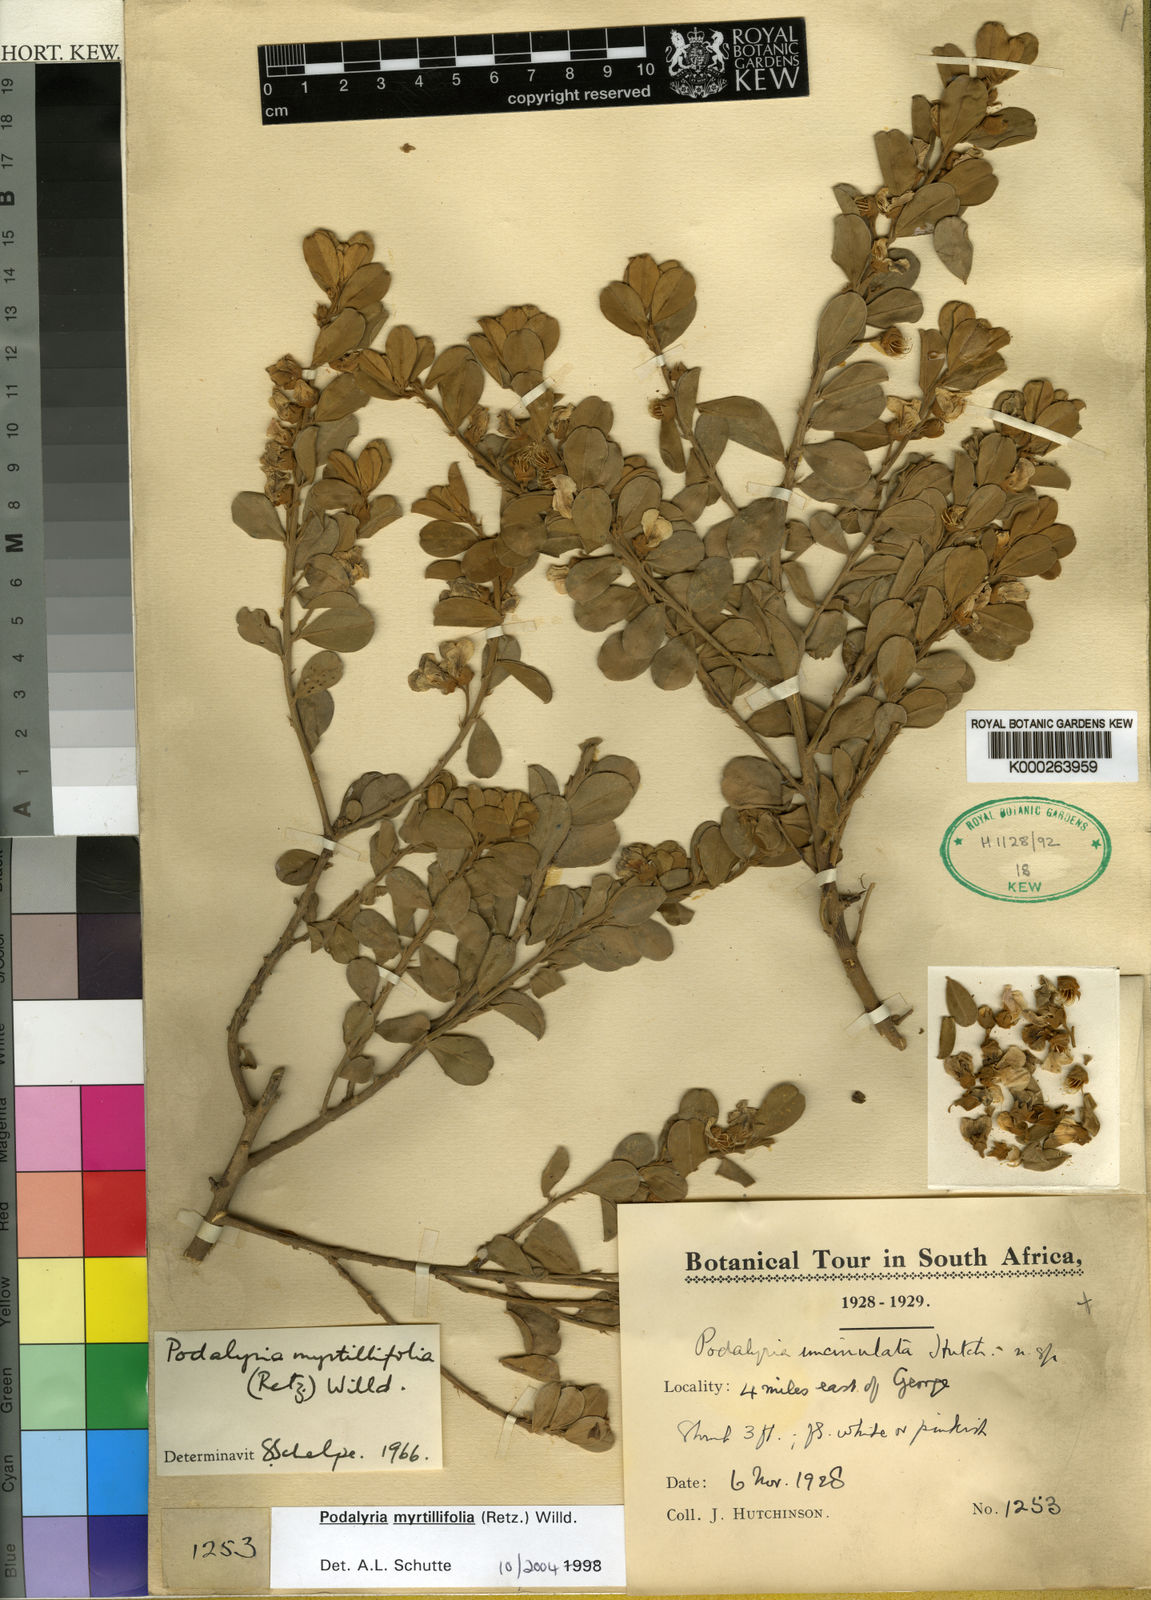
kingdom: Plantae
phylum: Tracheophyta
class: Magnoliopsida
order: Fabales
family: Fabaceae
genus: Podalyria
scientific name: Podalyria myrtillifolia
